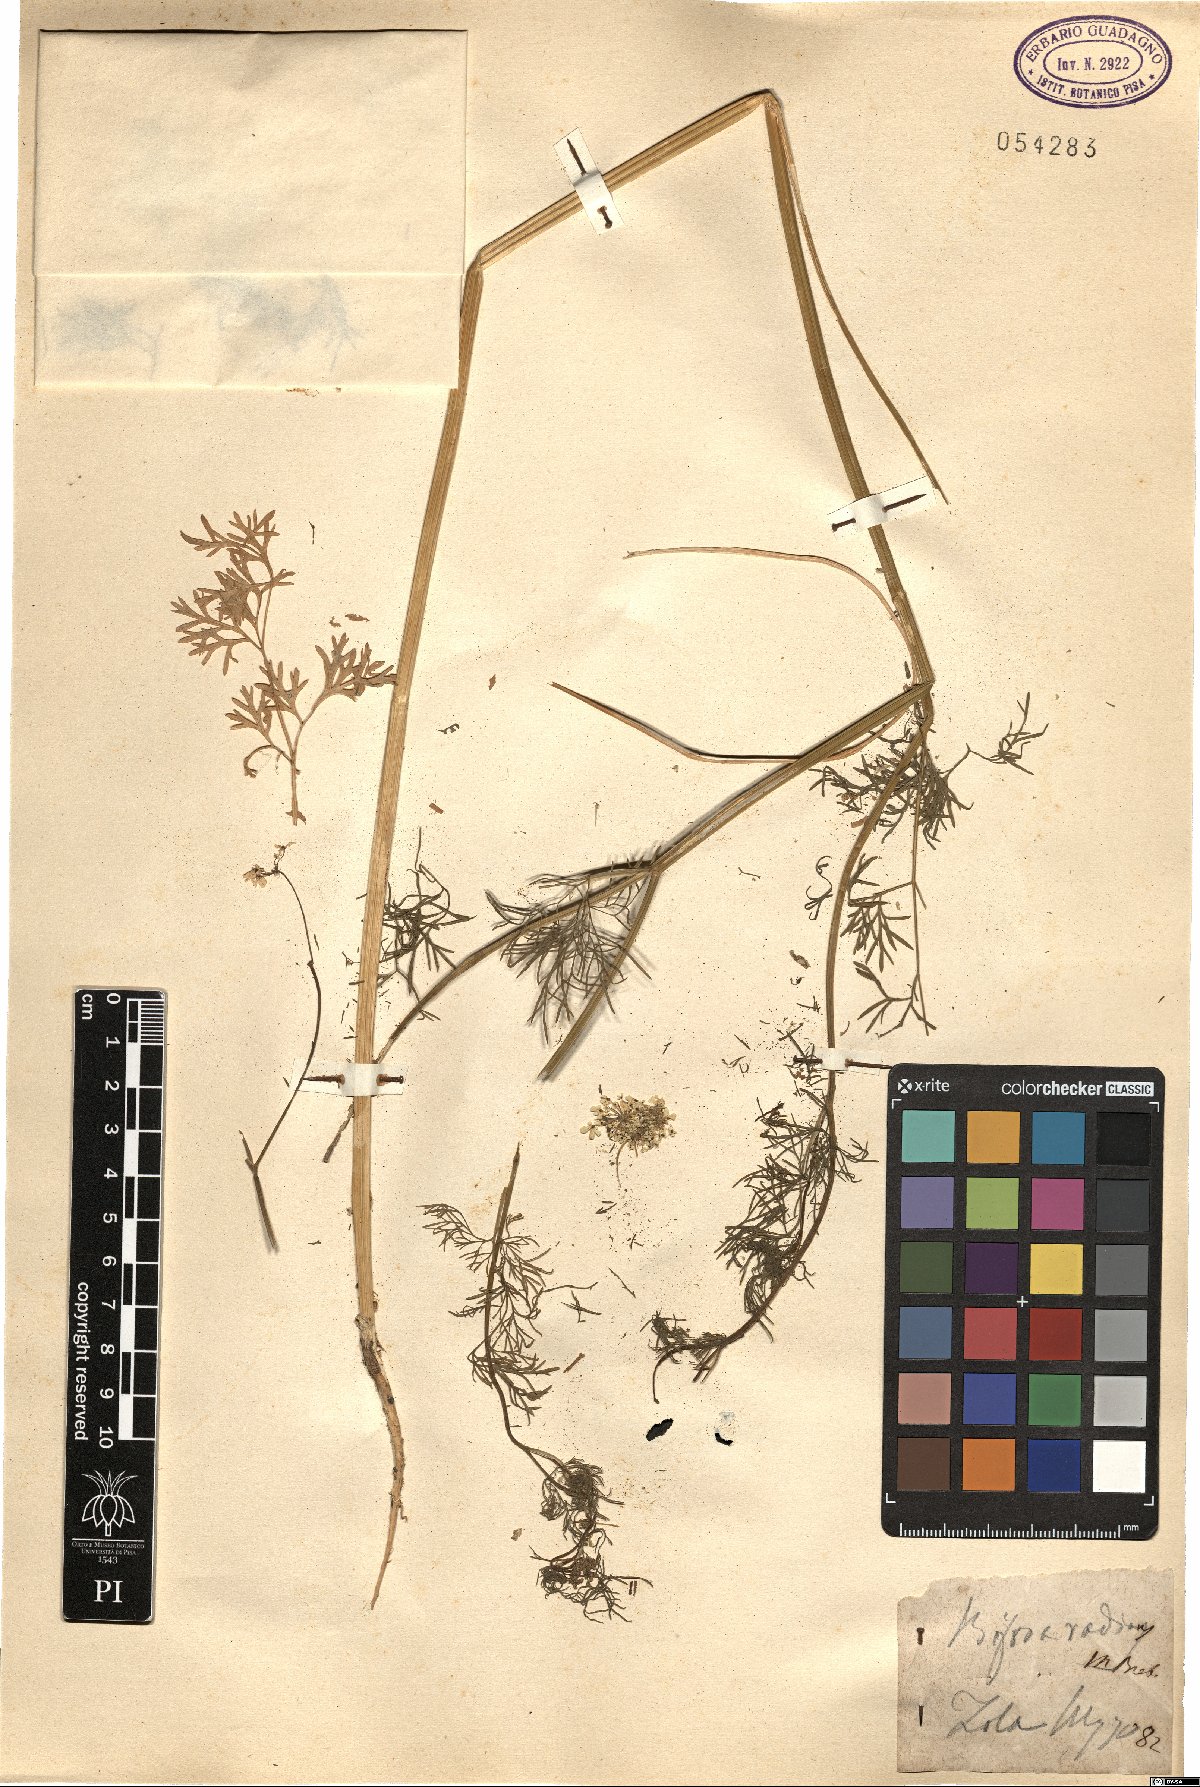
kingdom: Plantae
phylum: Tracheophyta
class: Magnoliopsida
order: Apiales
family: Apiaceae
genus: Bifora
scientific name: Bifora radians
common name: Wild bishop
